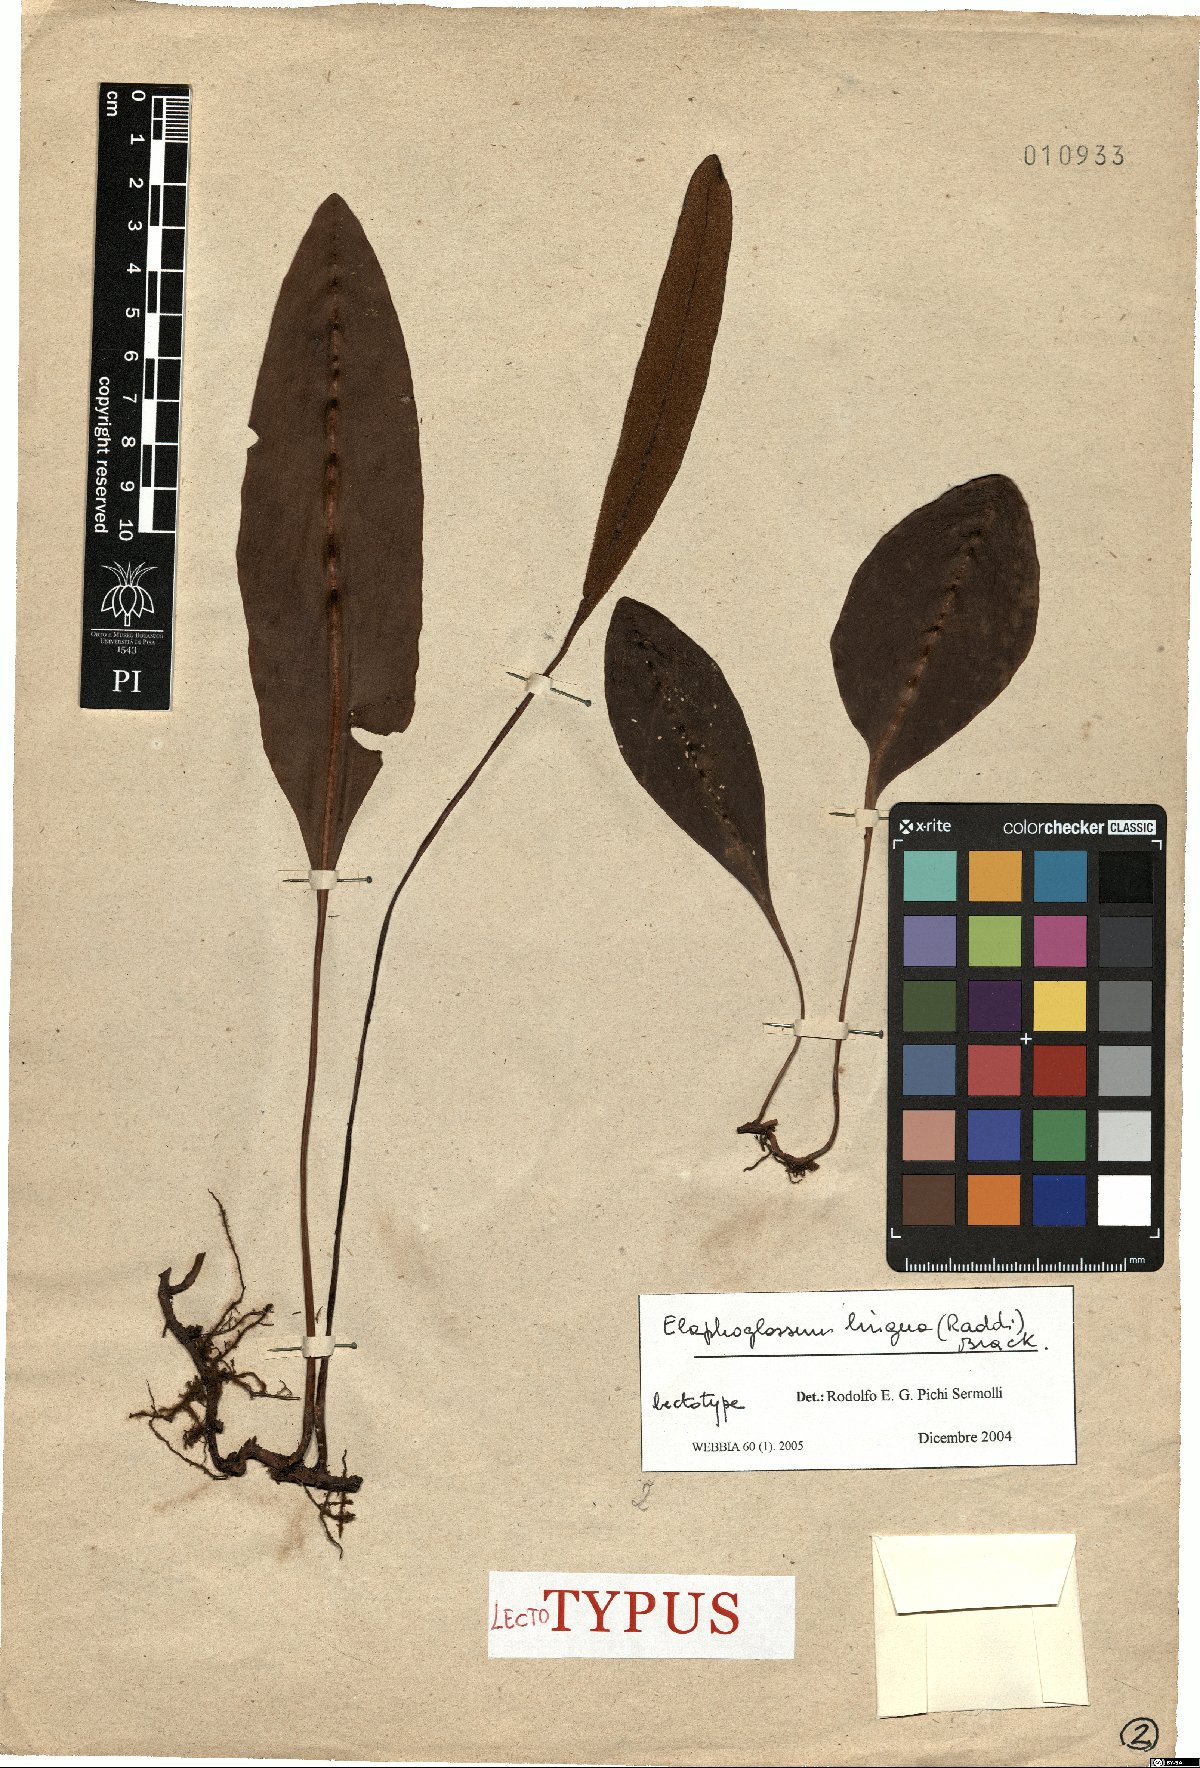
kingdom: Plantae
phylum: Tracheophyta
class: Polypodiopsida
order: Polypodiales
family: Dryopteridaceae
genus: Elaphoglossum
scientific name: Elaphoglossum lingua
